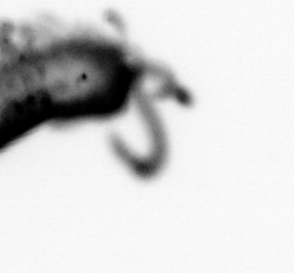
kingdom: Animalia
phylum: Annelida
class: Polychaeta
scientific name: Polychaeta
